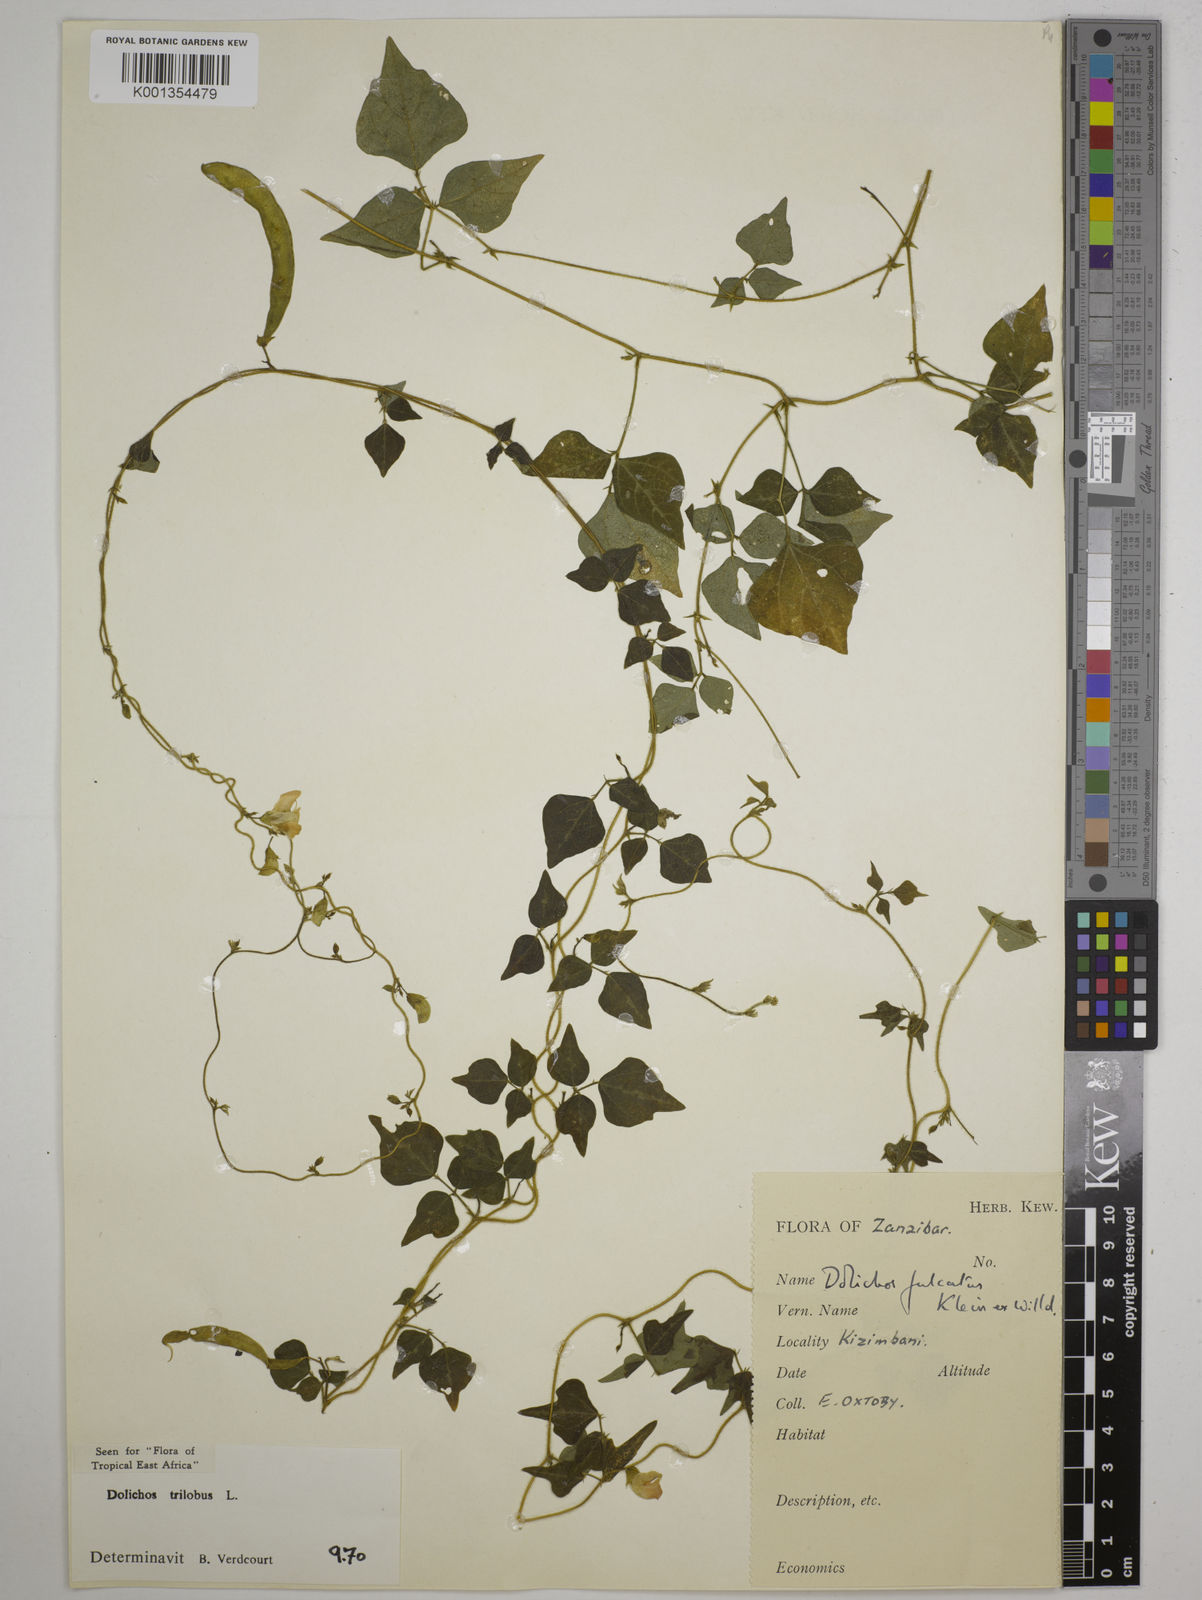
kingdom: Plantae
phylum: Tracheophyta
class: Magnoliopsida
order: Fabales
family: Fabaceae
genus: Dolichos
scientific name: Dolichos
